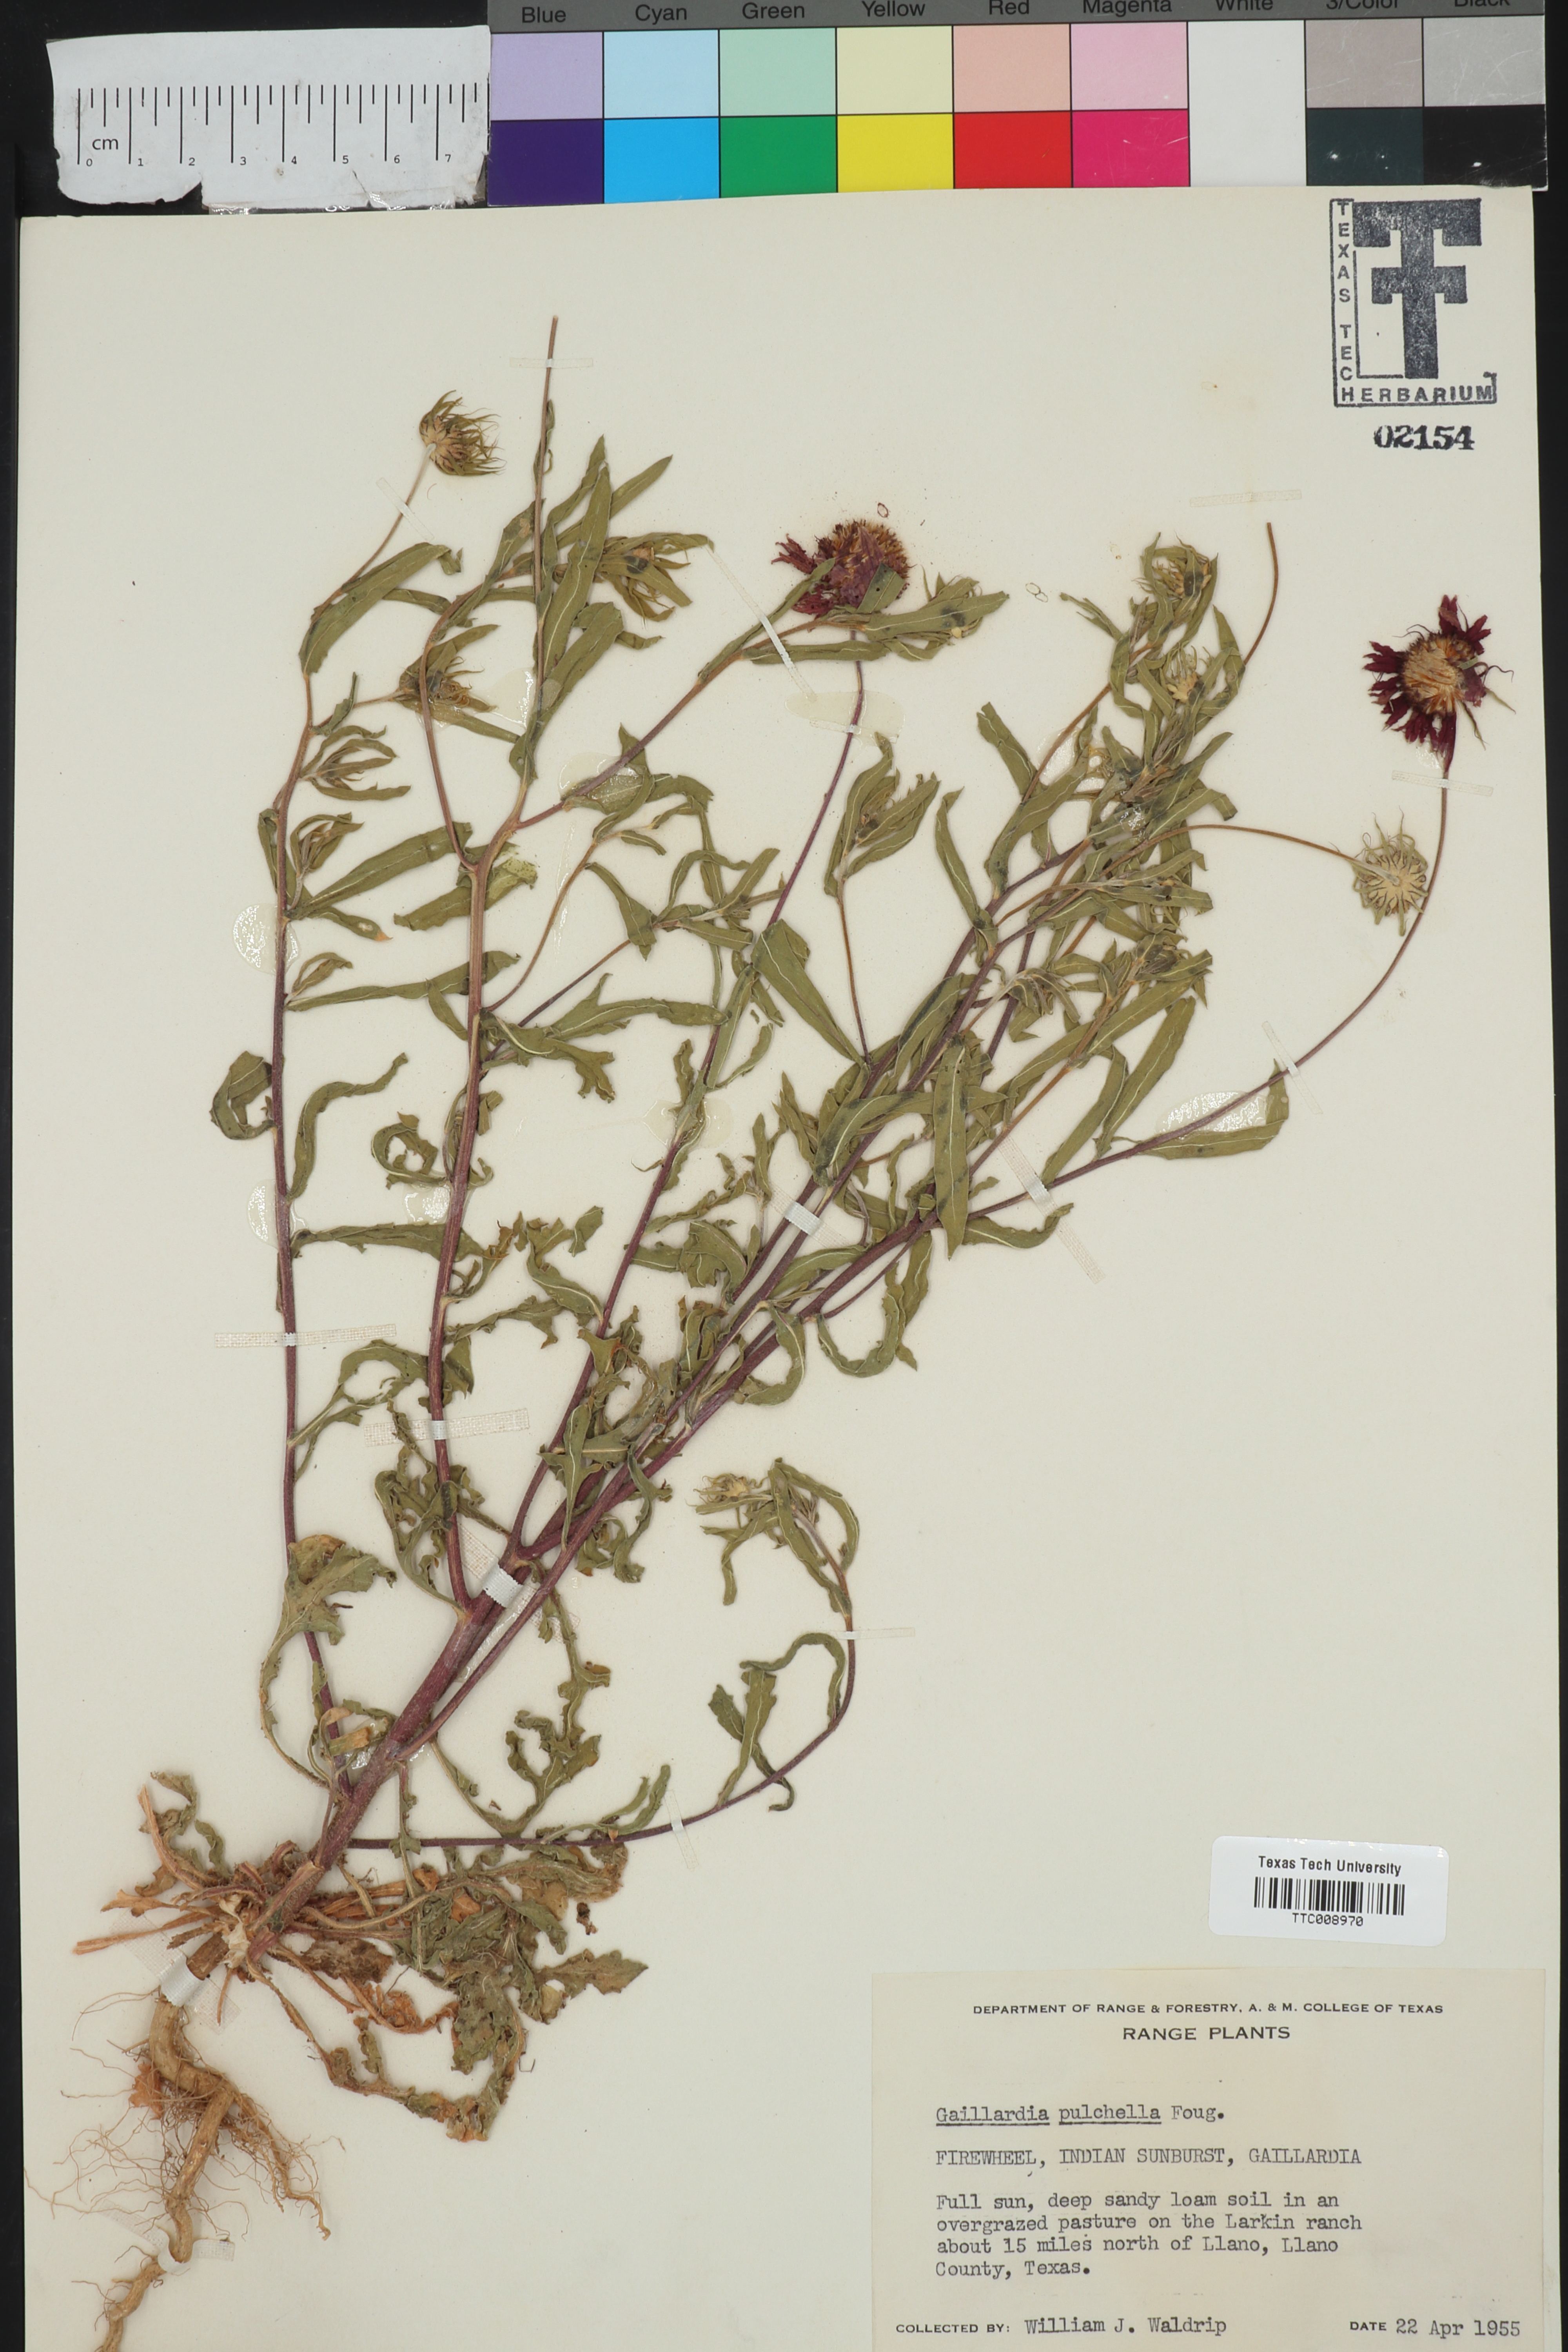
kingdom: Plantae
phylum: Tracheophyta
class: Magnoliopsida
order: Asterales
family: Asteraceae
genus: Gaillardia
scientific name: Gaillardia pulchella
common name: Firewheel
